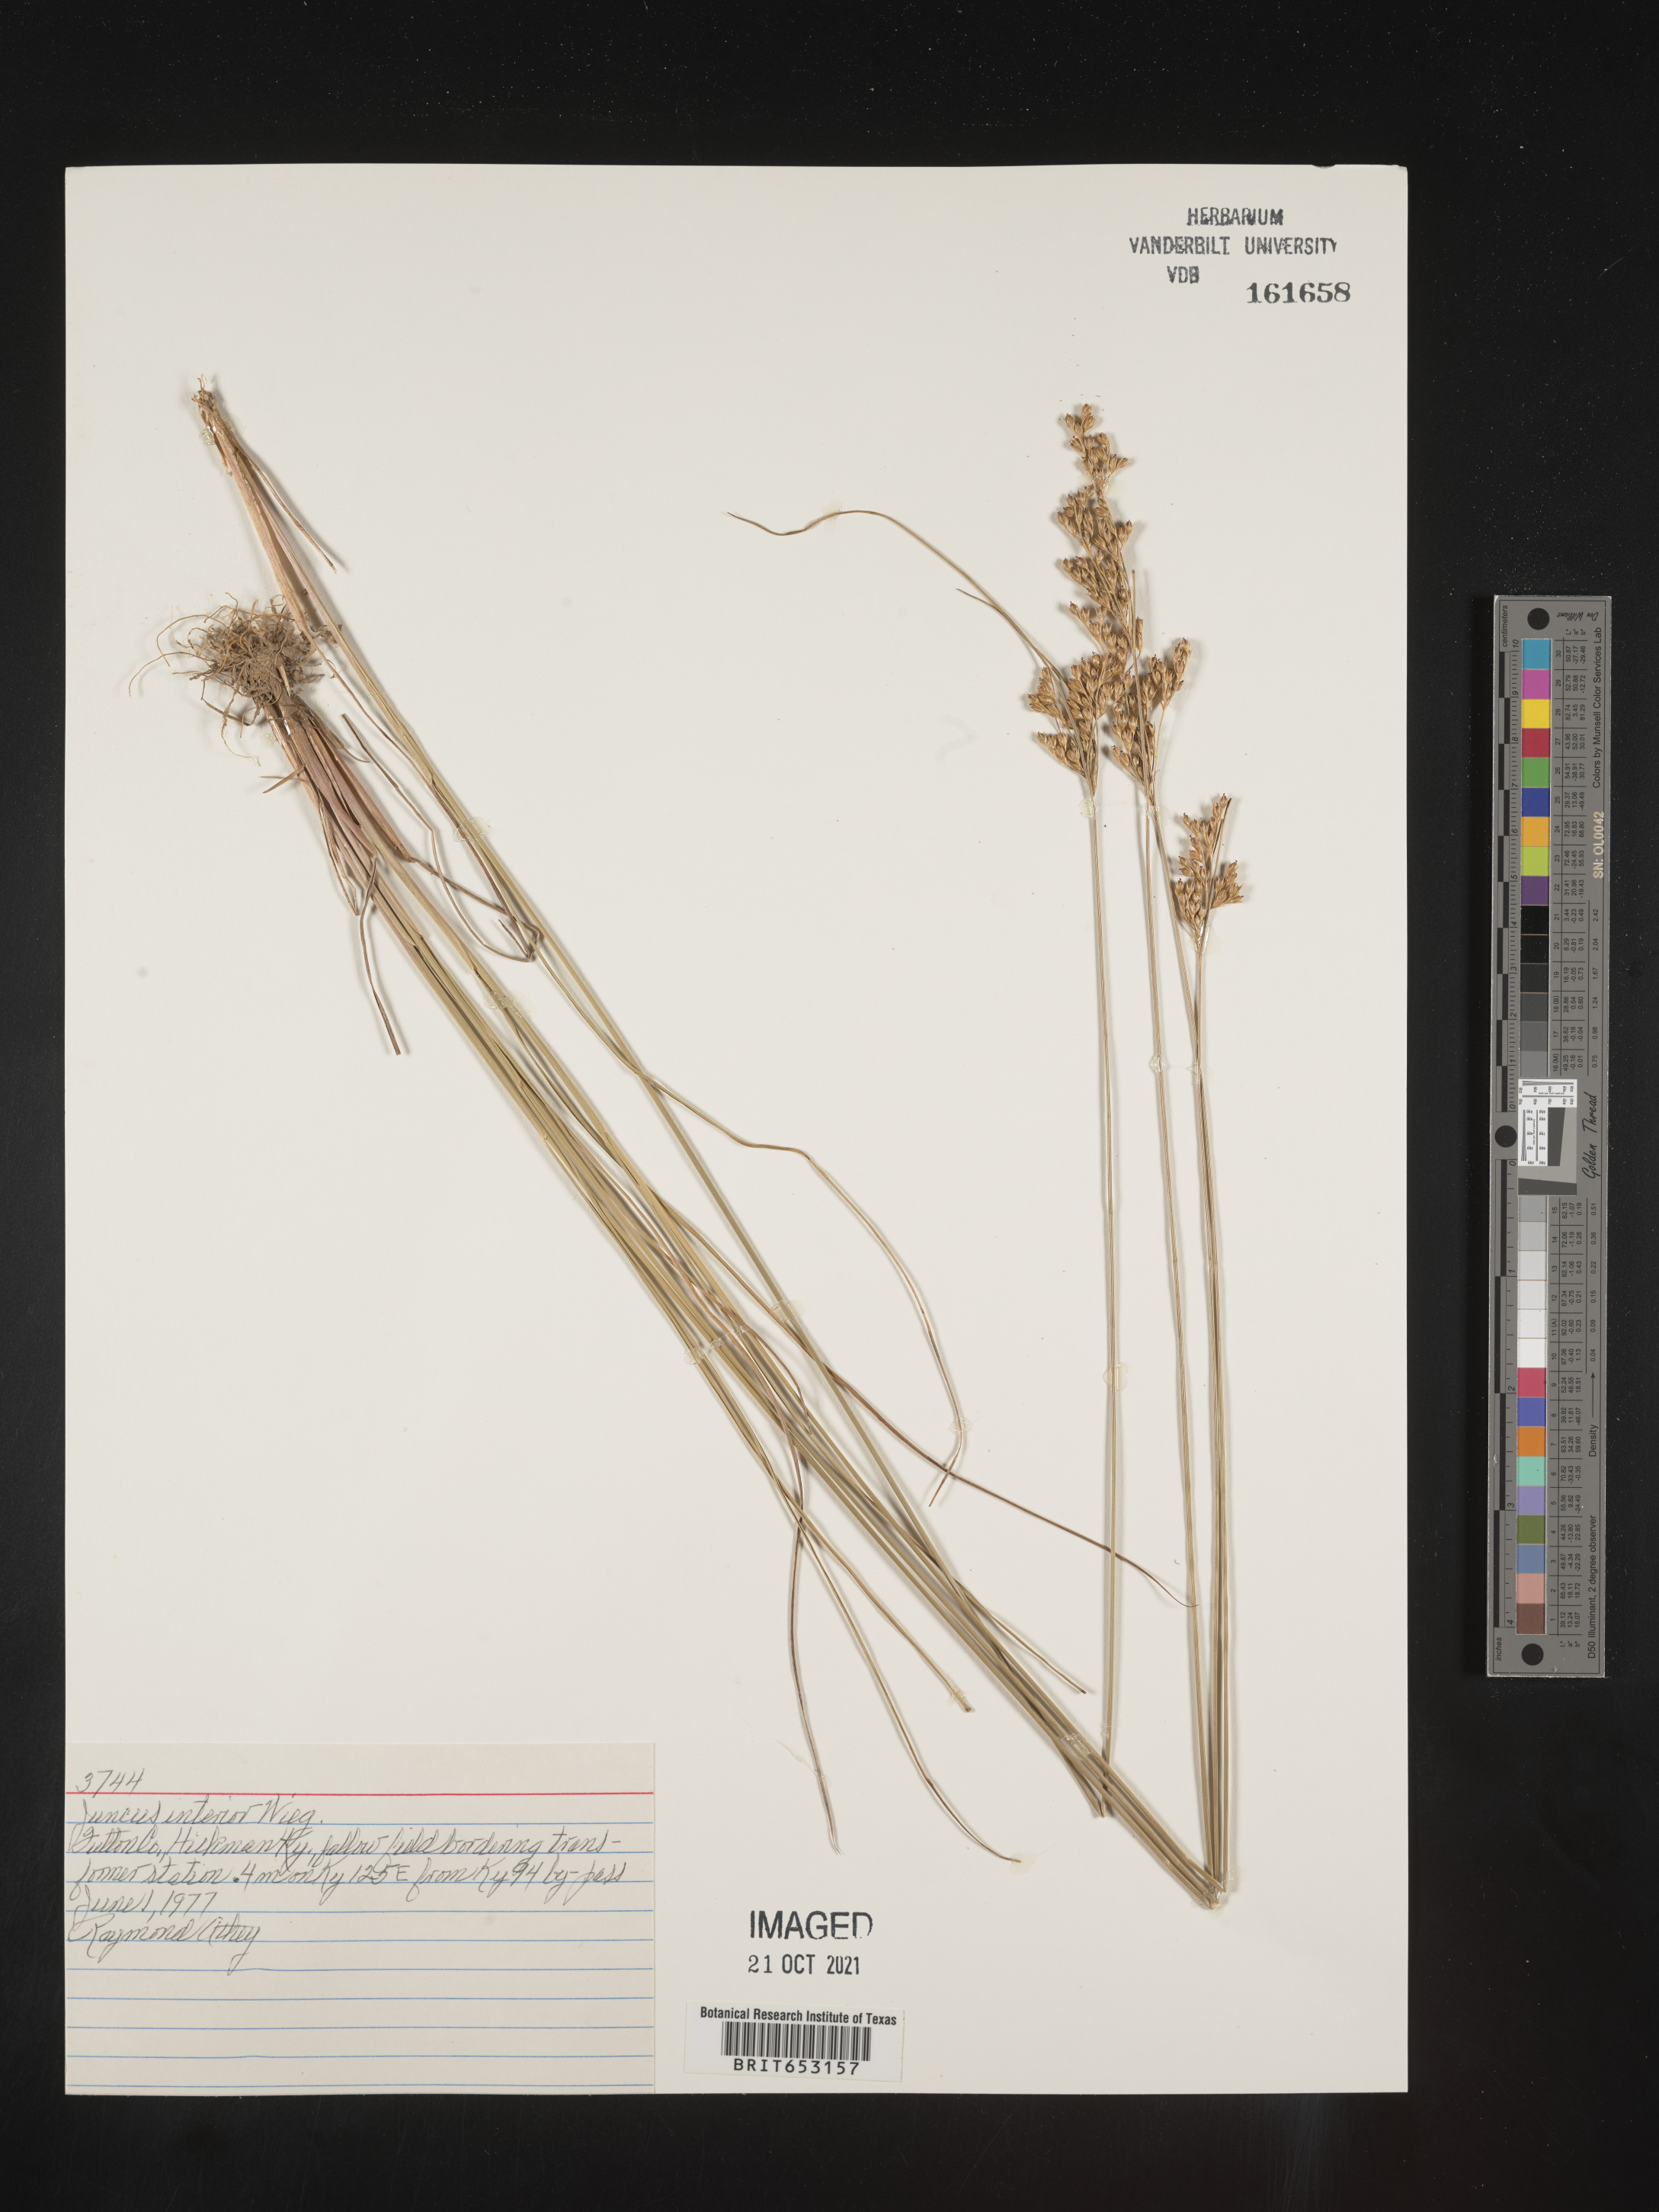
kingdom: Plantae
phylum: Tracheophyta
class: Liliopsida
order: Poales
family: Juncaceae
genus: Juncus
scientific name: Juncus interior
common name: Interior rush
